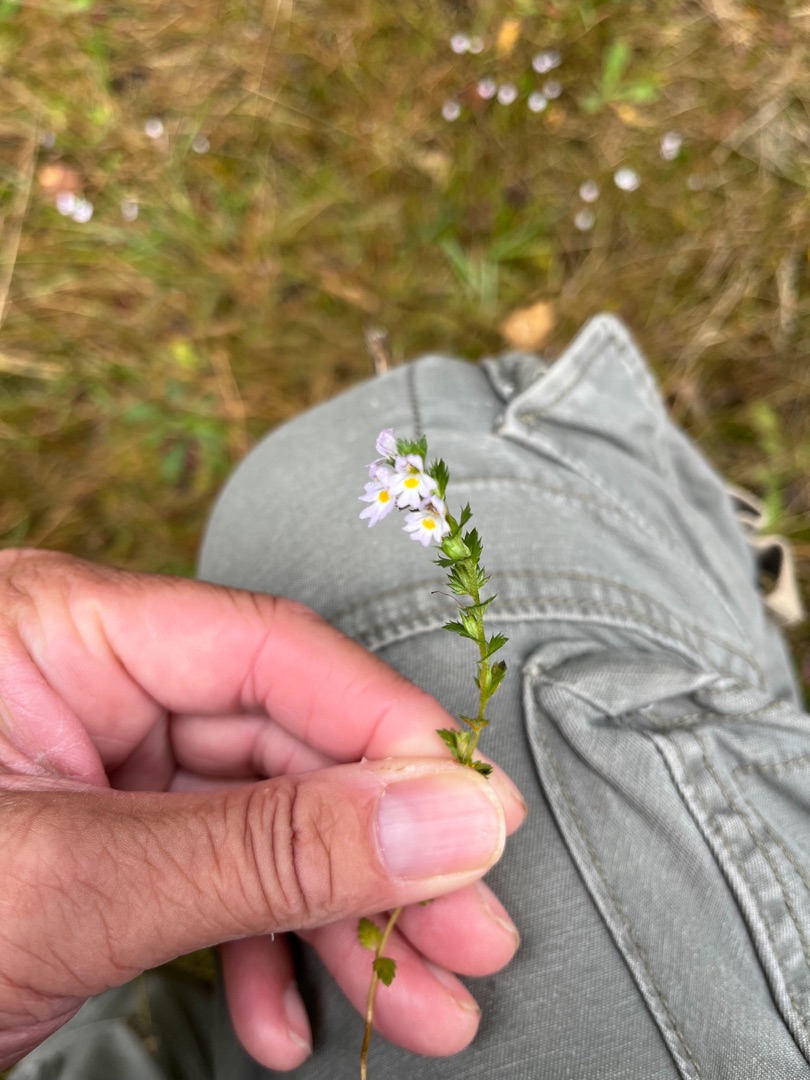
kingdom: Plantae
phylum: Tracheophyta
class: Magnoliopsida
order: Lamiales
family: Orobanchaceae
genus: Euphrasia
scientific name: Euphrasia stricta
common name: Spids øjentrøst
